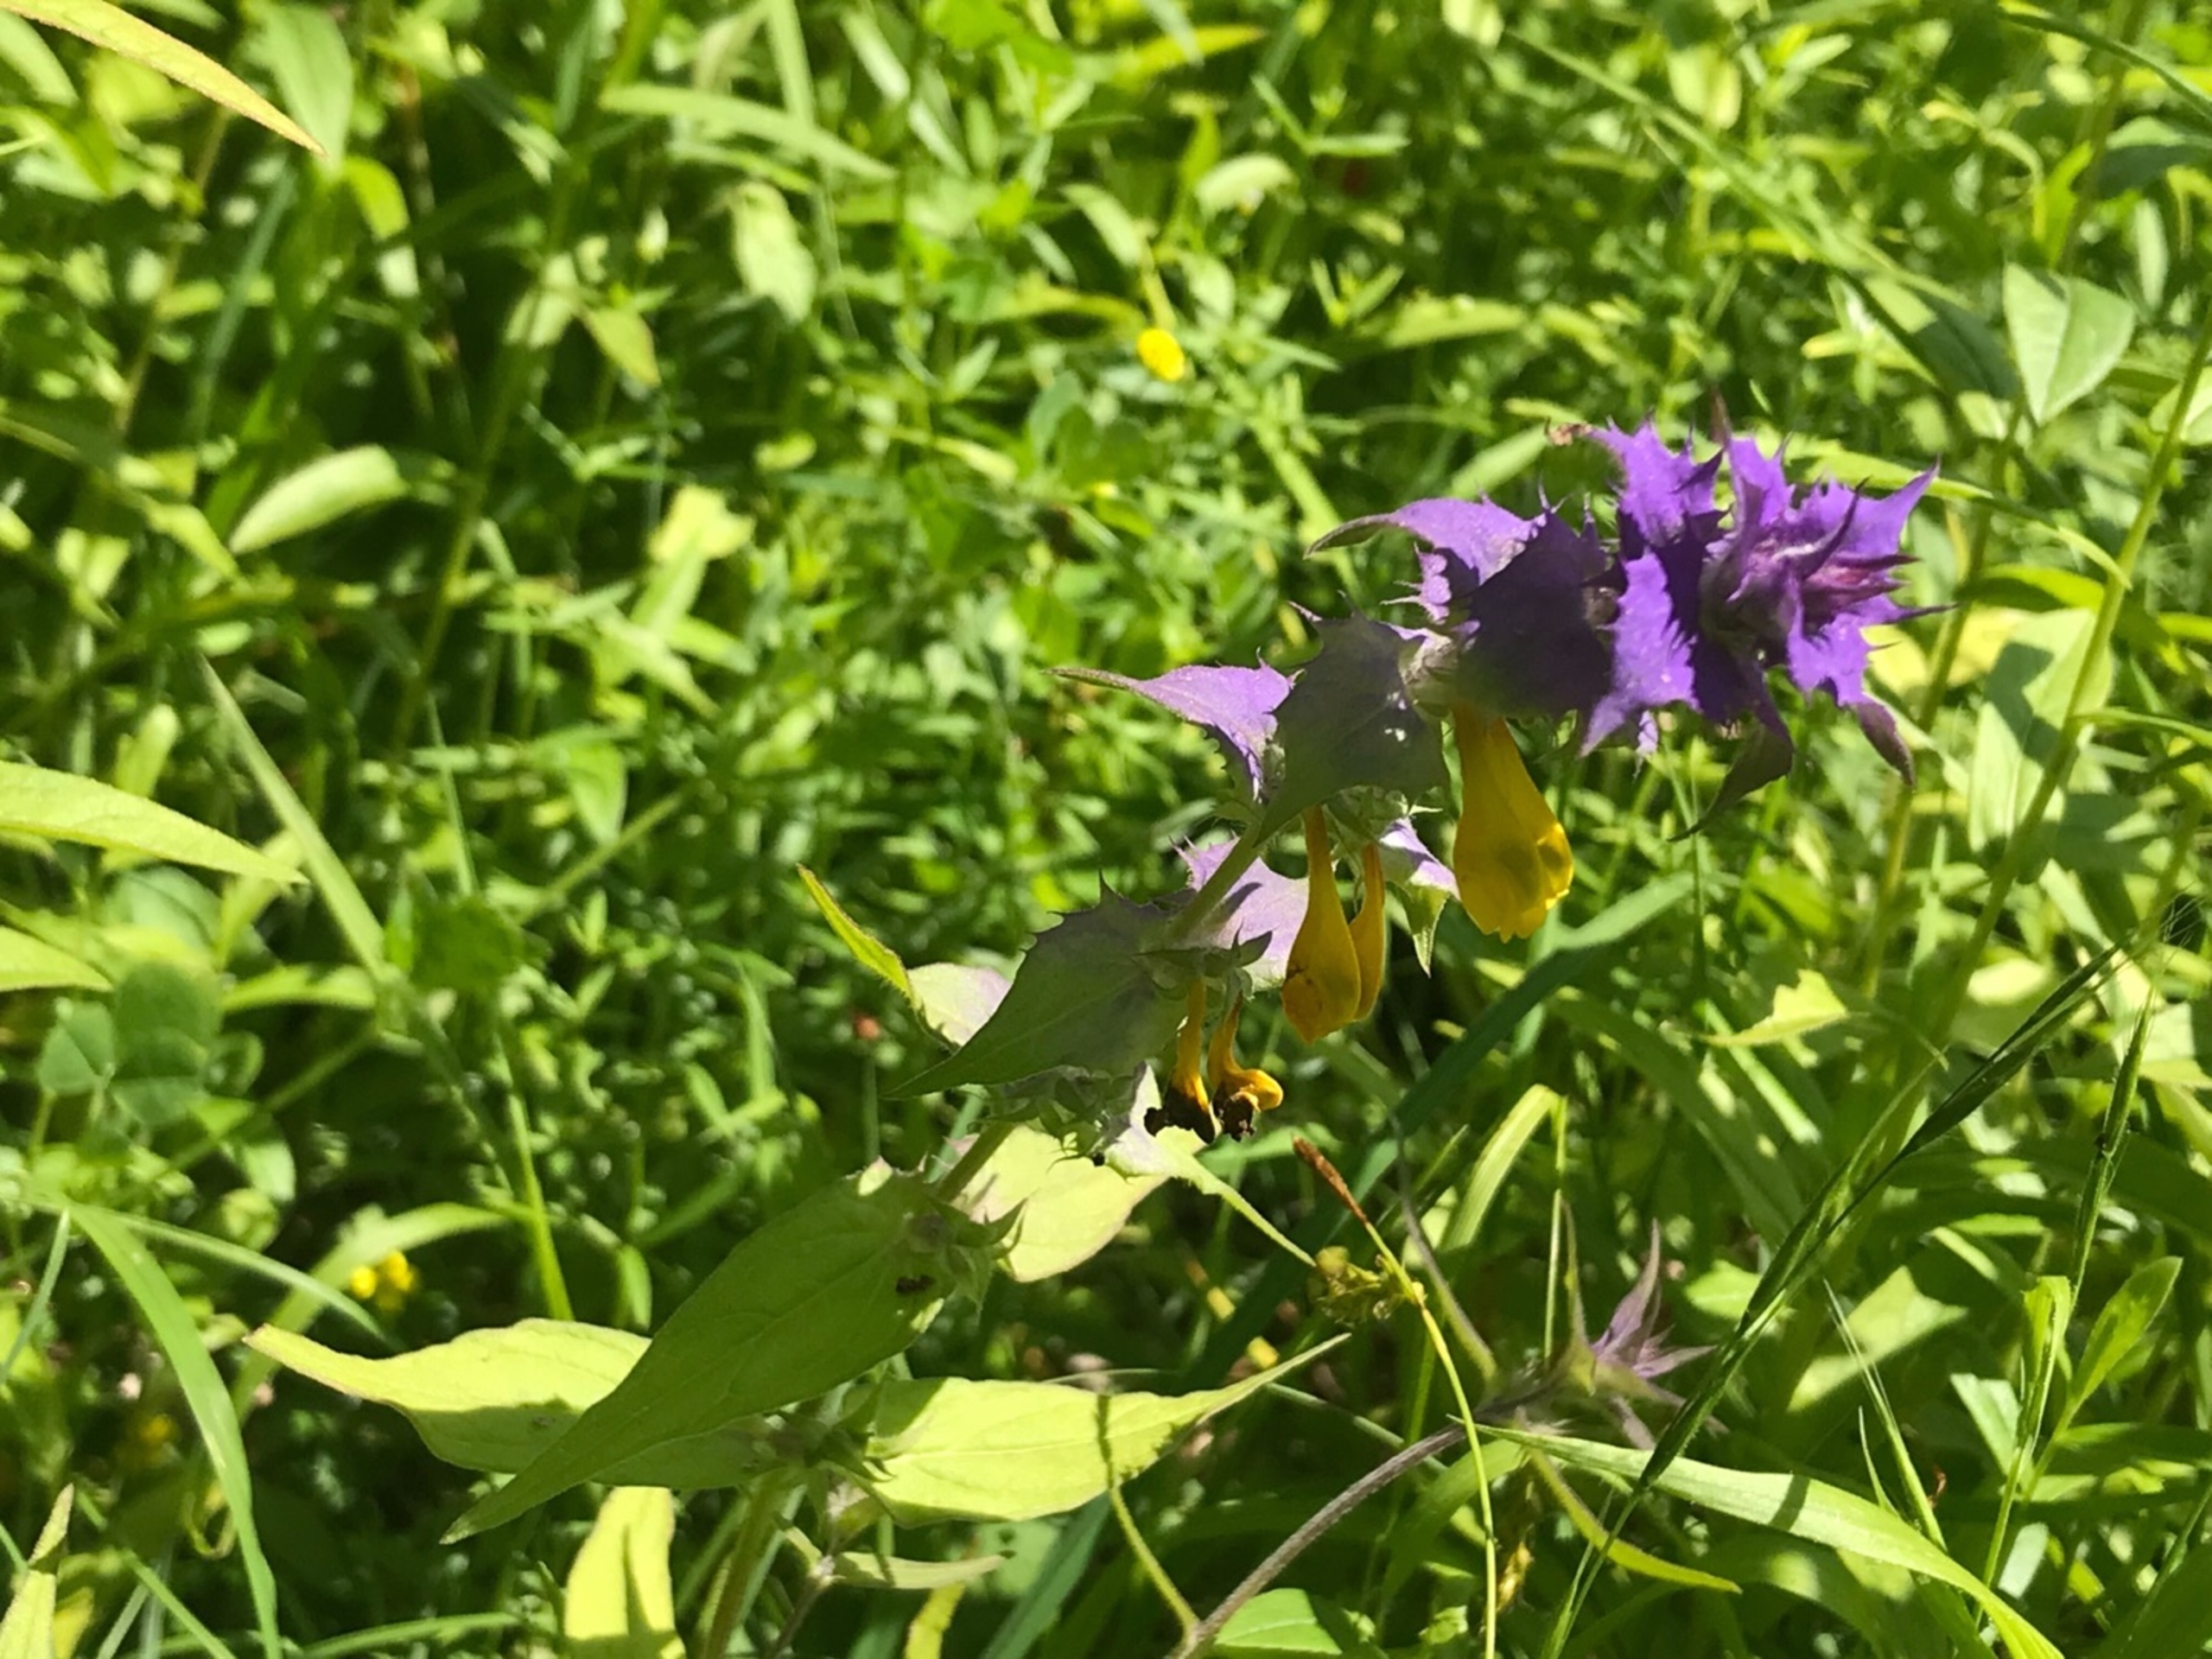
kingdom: Plantae
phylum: Tracheophyta
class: Magnoliopsida
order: Lamiales
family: Orobanchaceae
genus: Melampyrum
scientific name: Melampyrum nemorosum
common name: Blåtoppet kohvede
